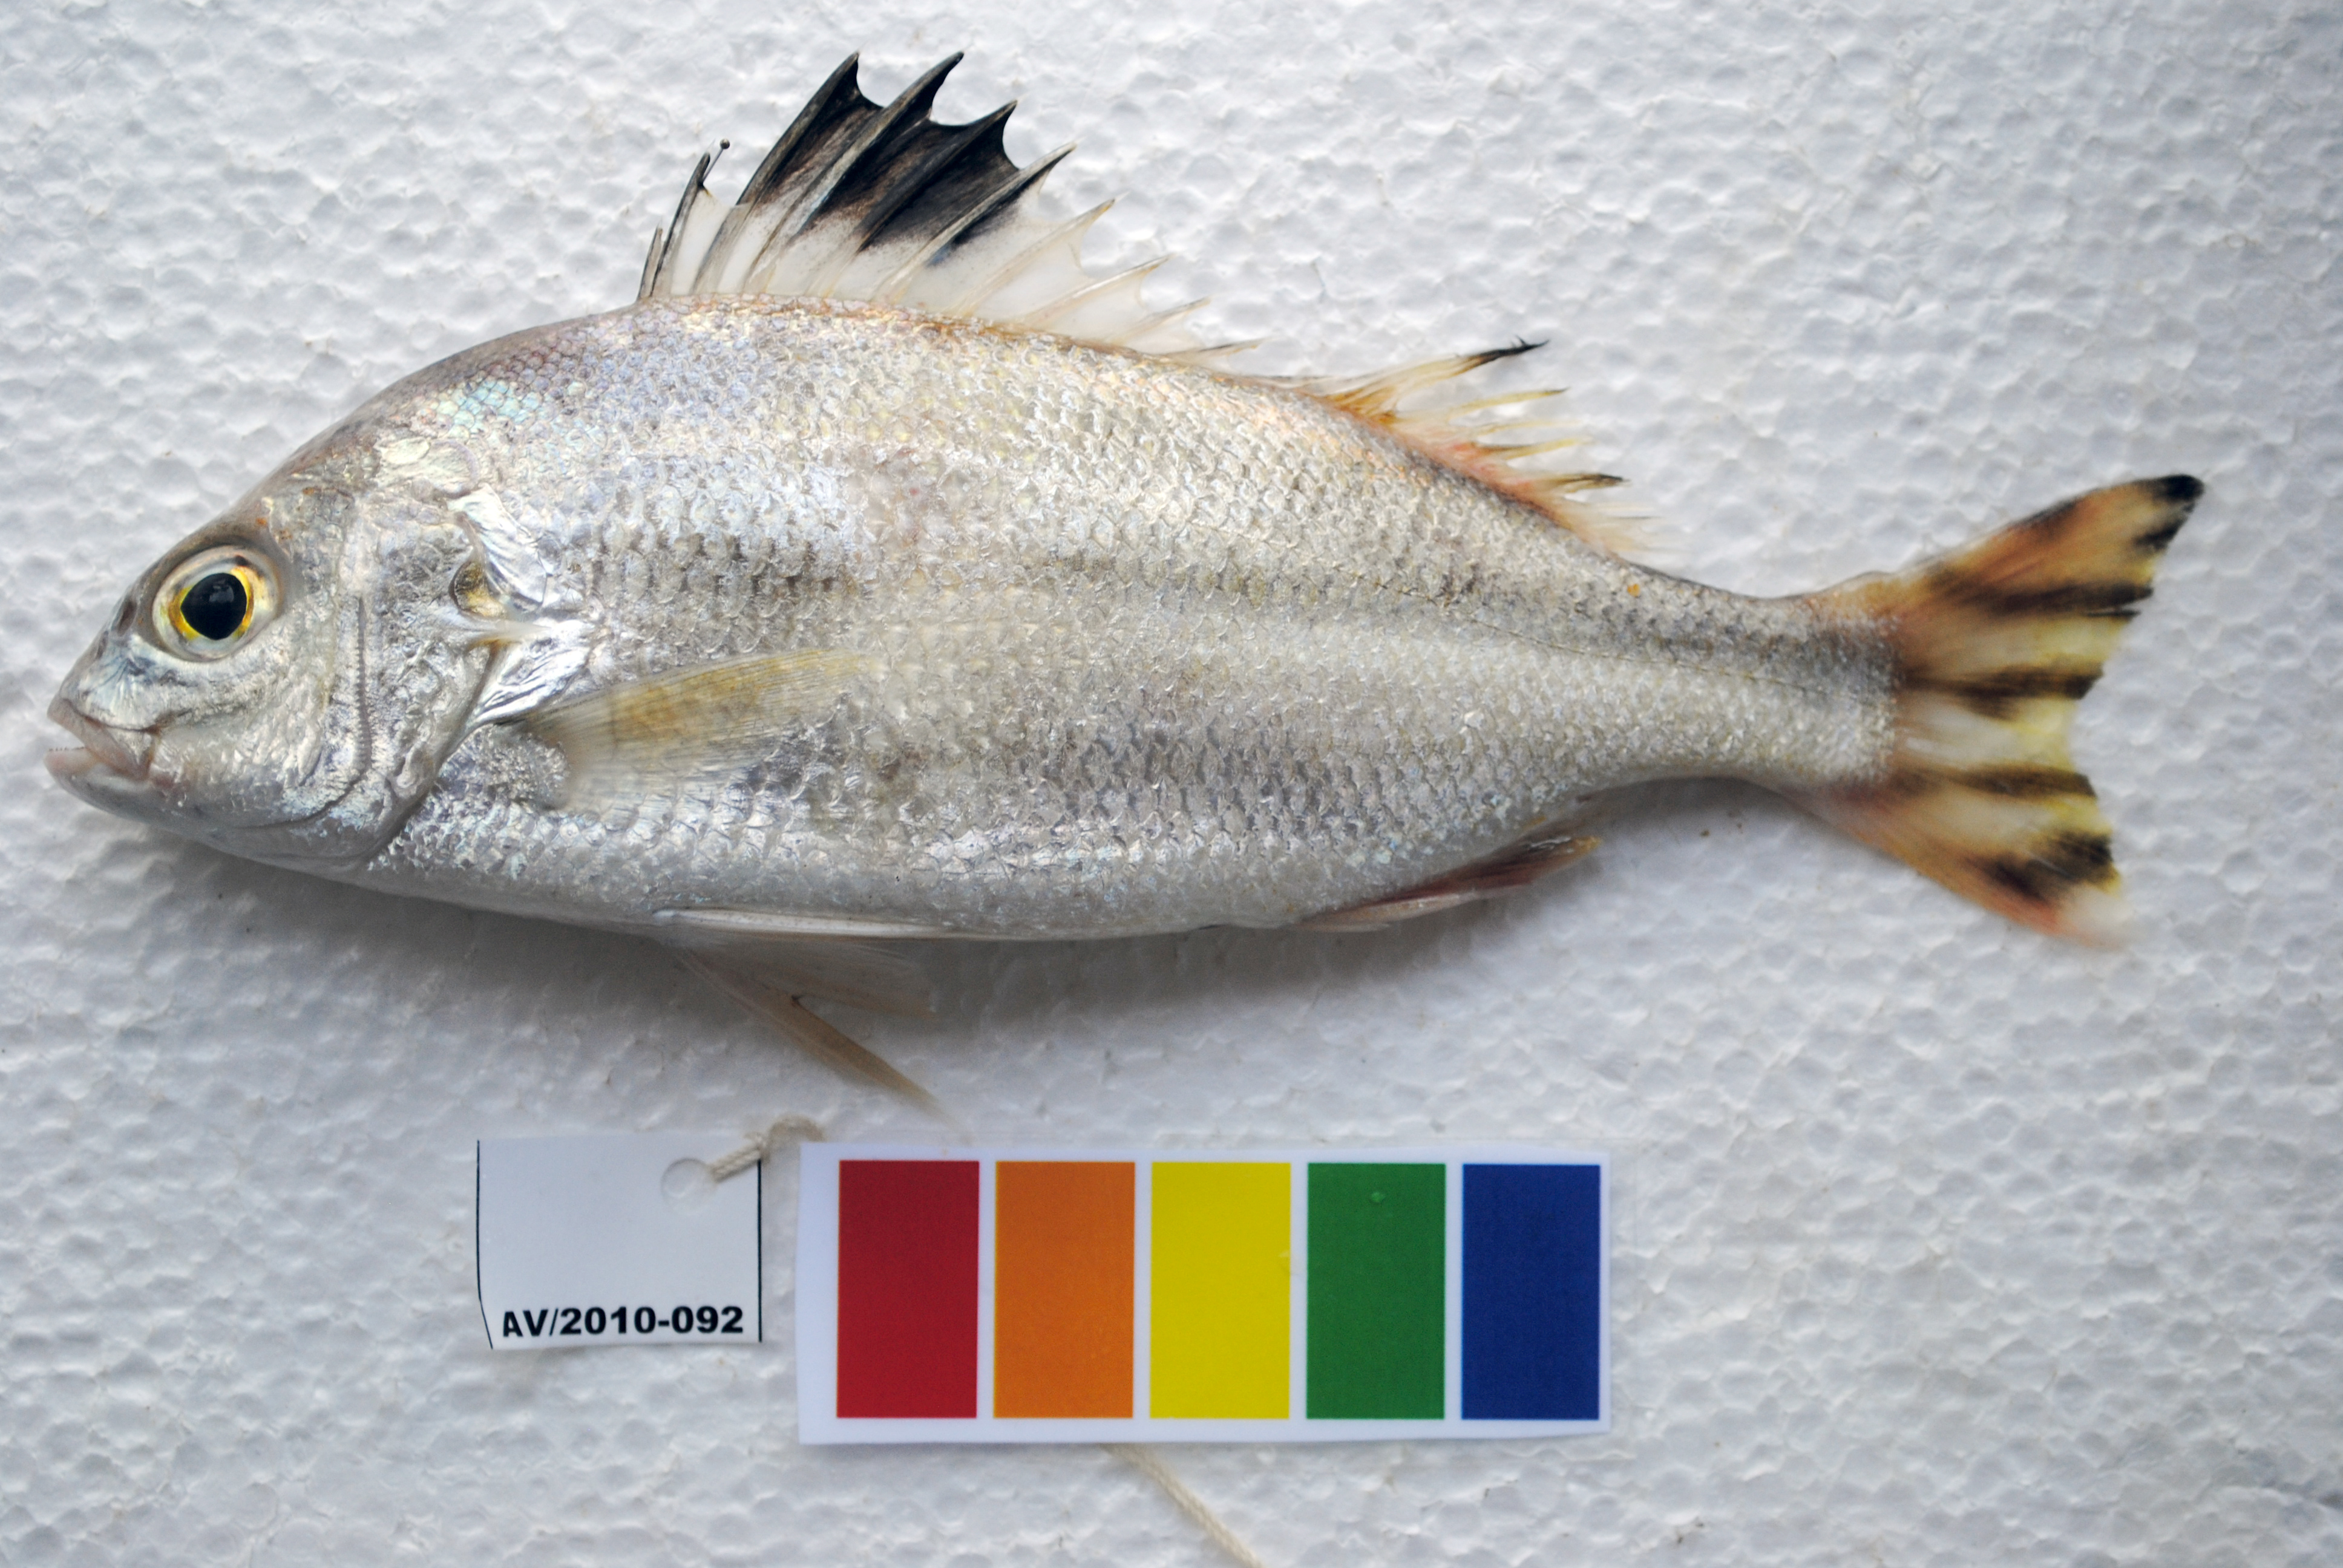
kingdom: Animalia
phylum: Chordata
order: Perciformes
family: Terapontidae
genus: Terapon
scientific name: Terapon theraps
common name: Largescaled therapon
